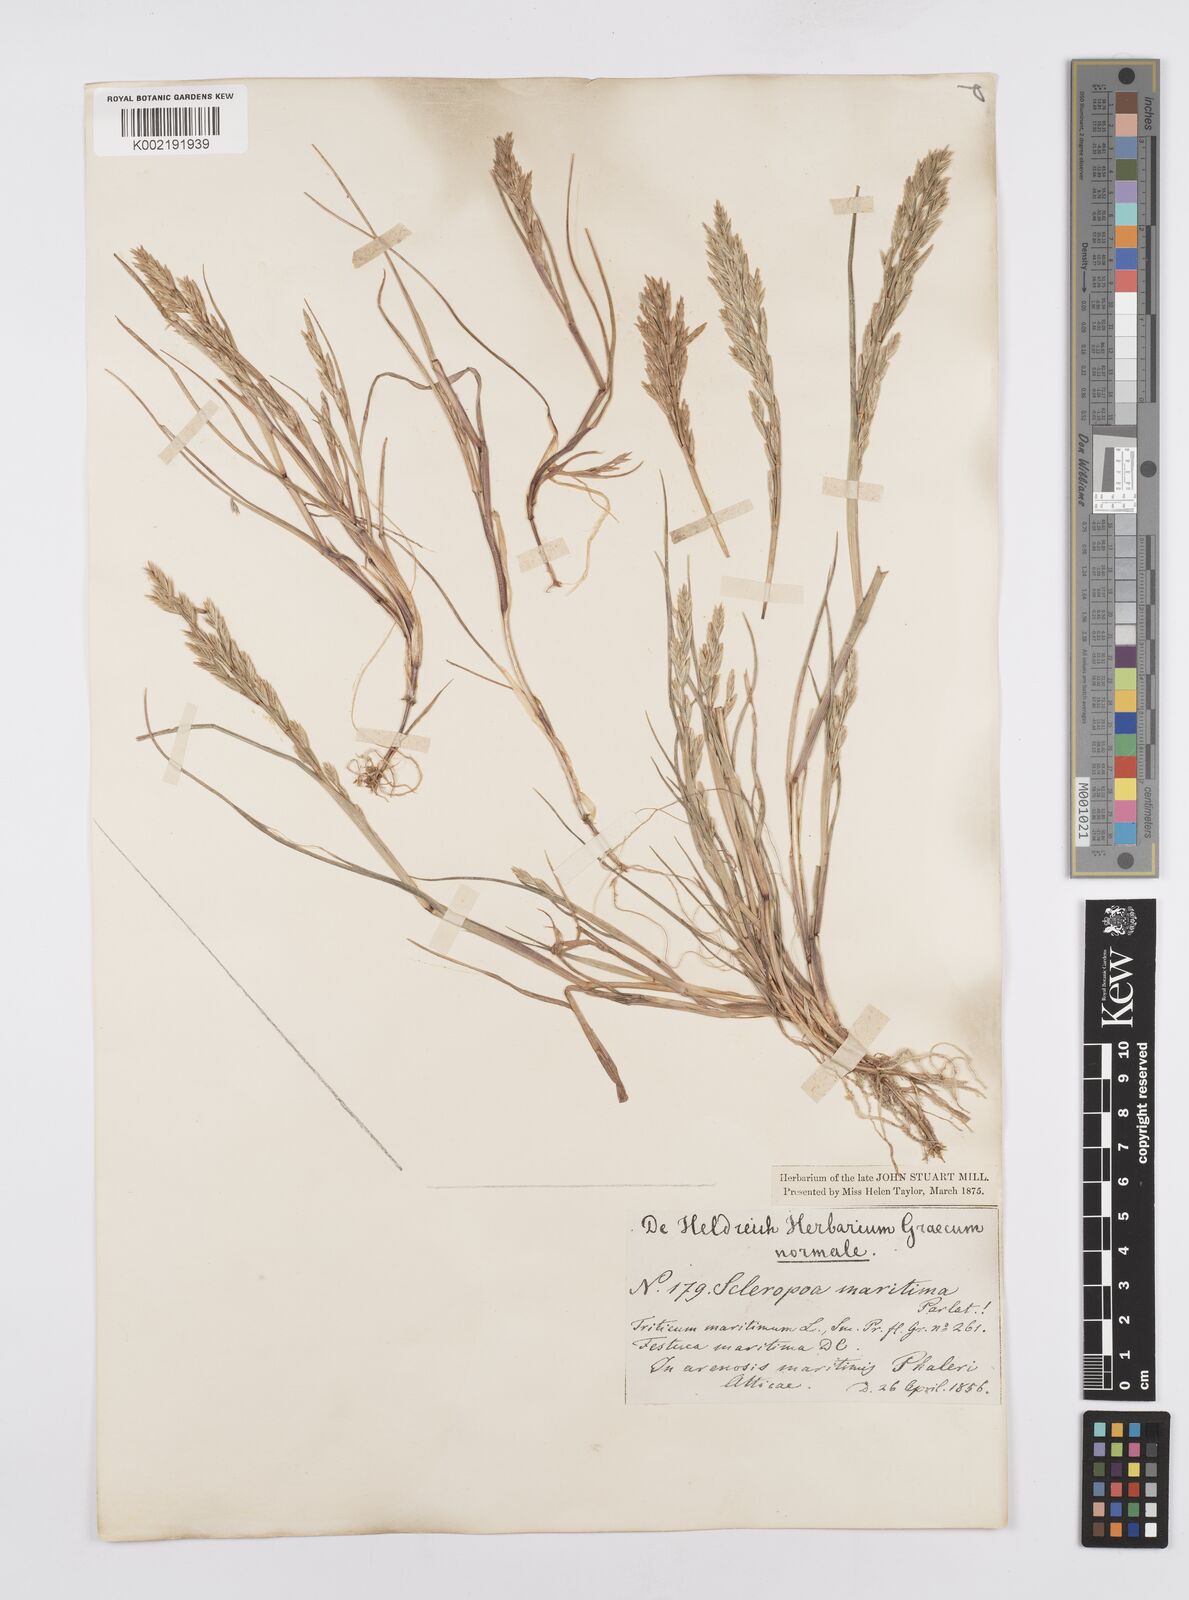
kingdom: Plantae
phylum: Tracheophyta
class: Liliopsida
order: Poales
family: Poaceae
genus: Cutandia
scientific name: Cutandia maritima
